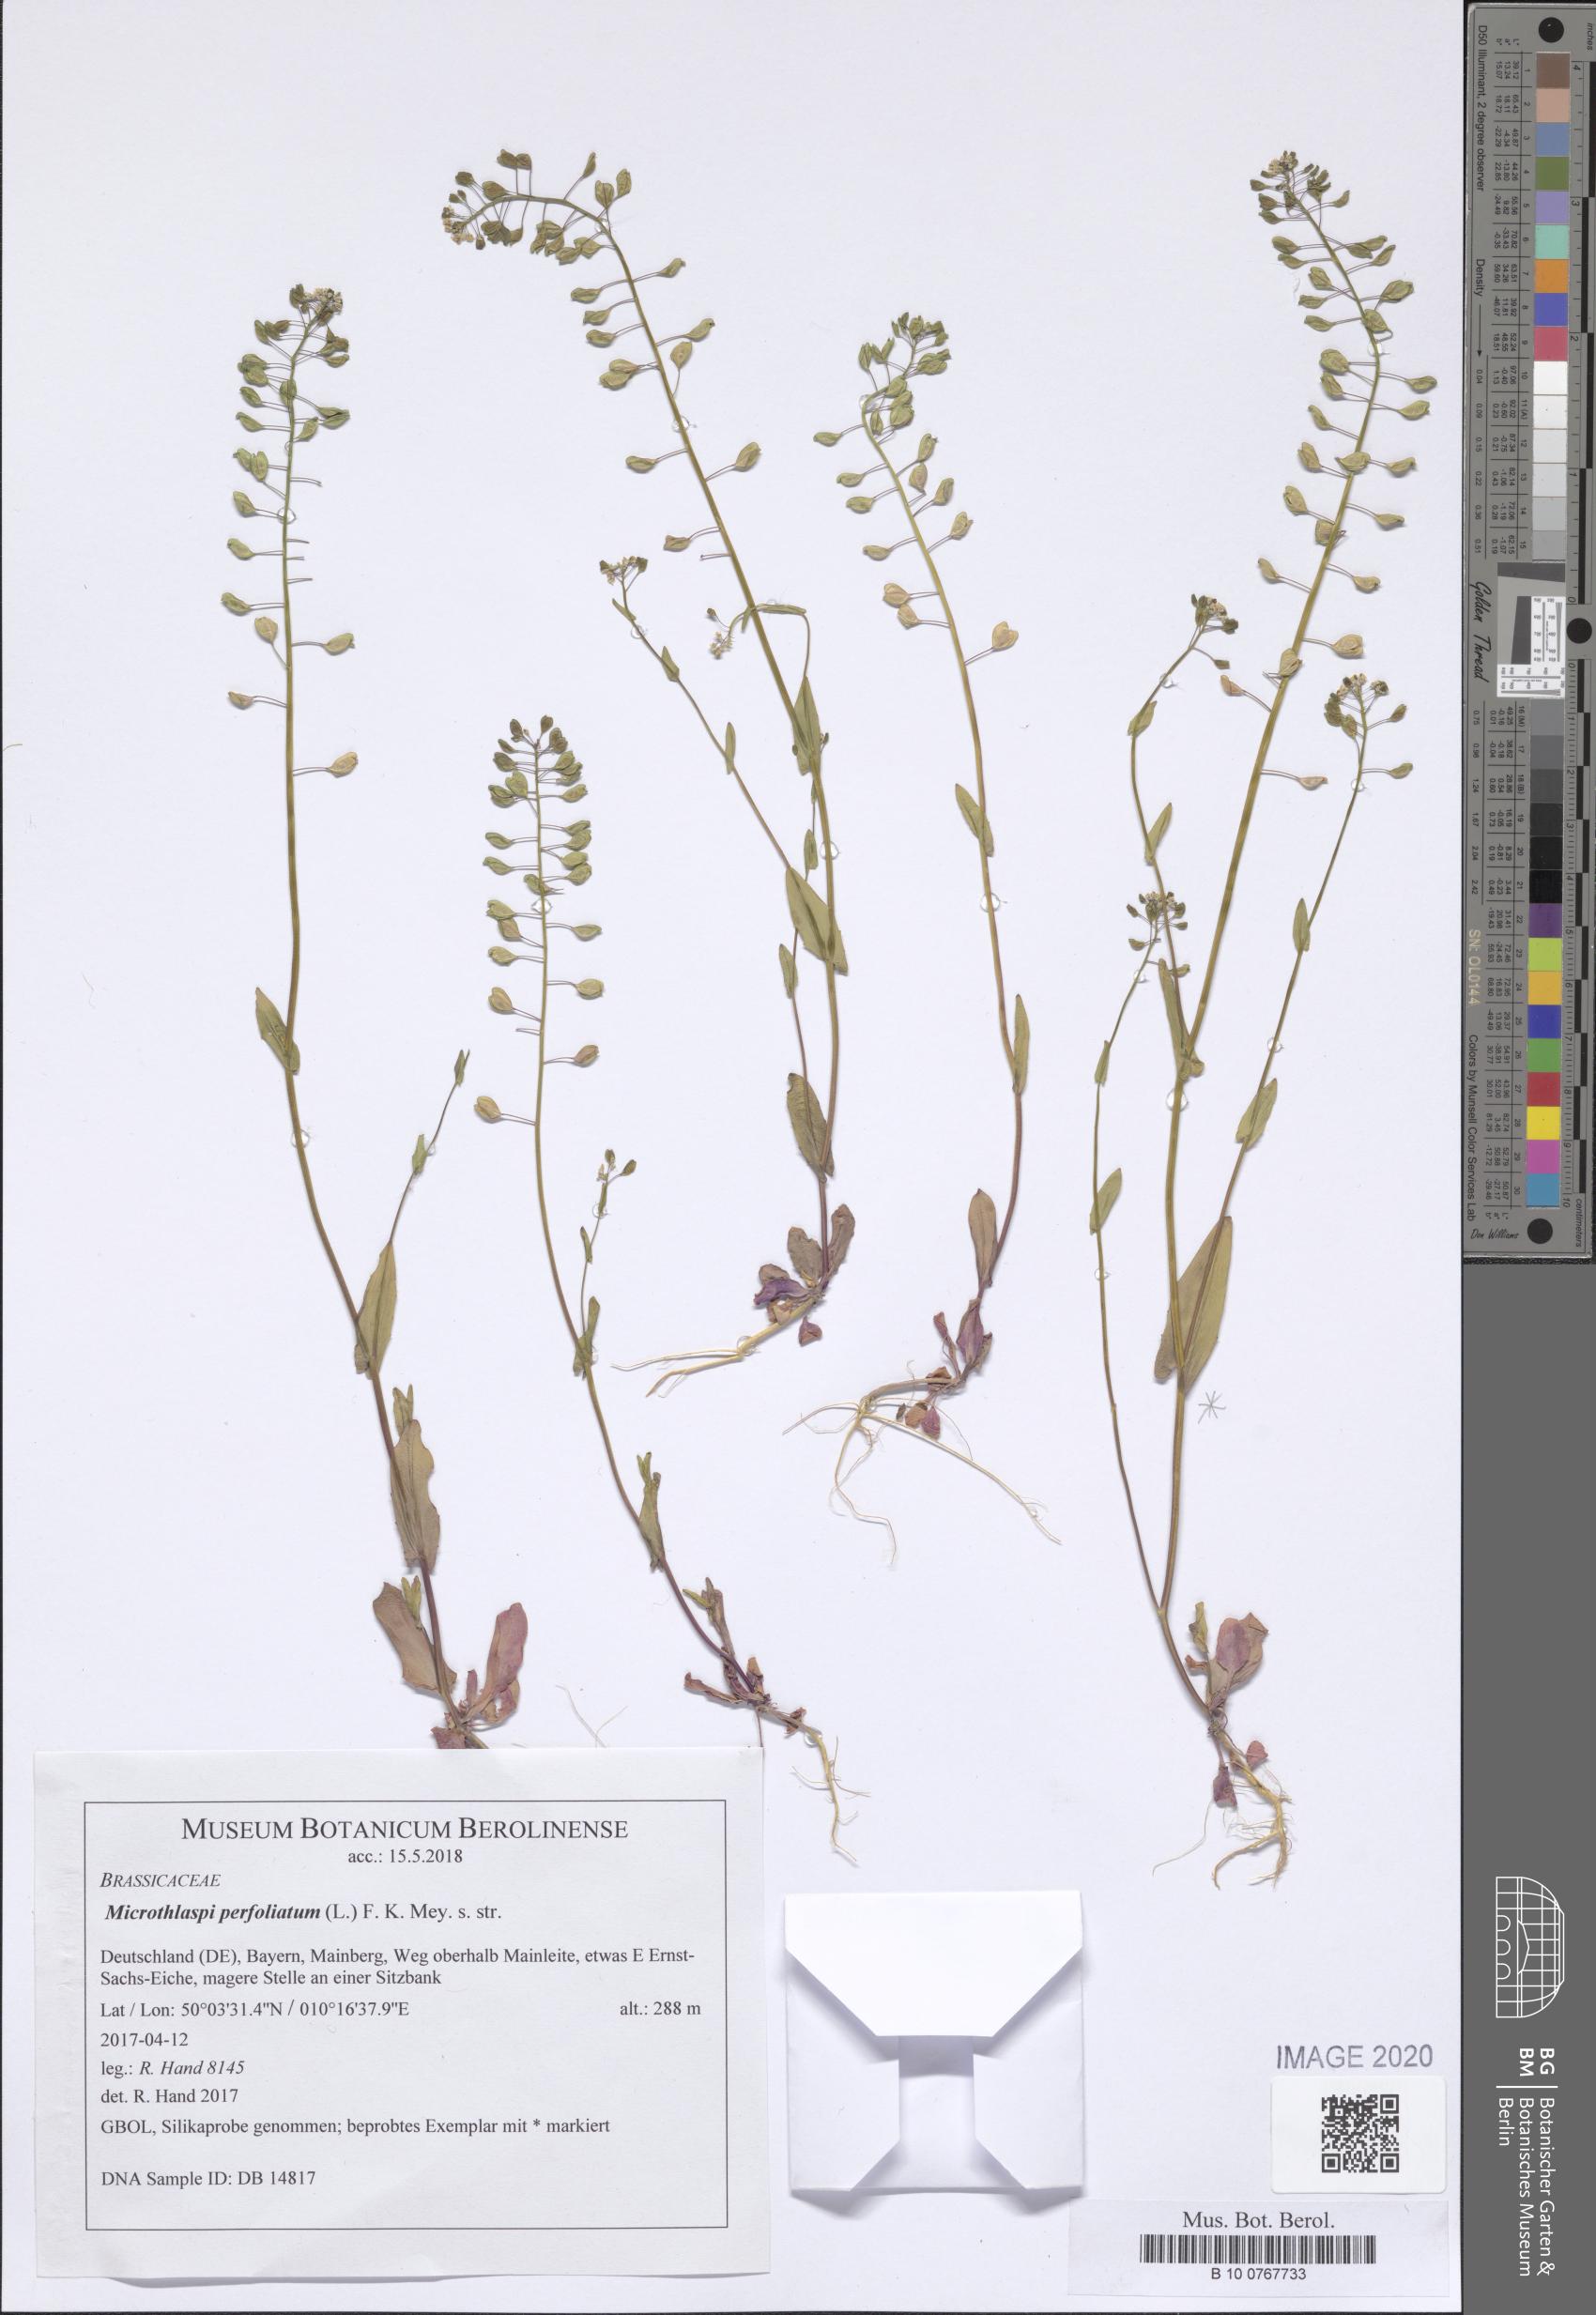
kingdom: Plantae
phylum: Tracheophyta
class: Magnoliopsida
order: Brassicales
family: Brassicaceae
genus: Noccaea
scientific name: Noccaea perfoliata
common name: Perfoliate pennycress
